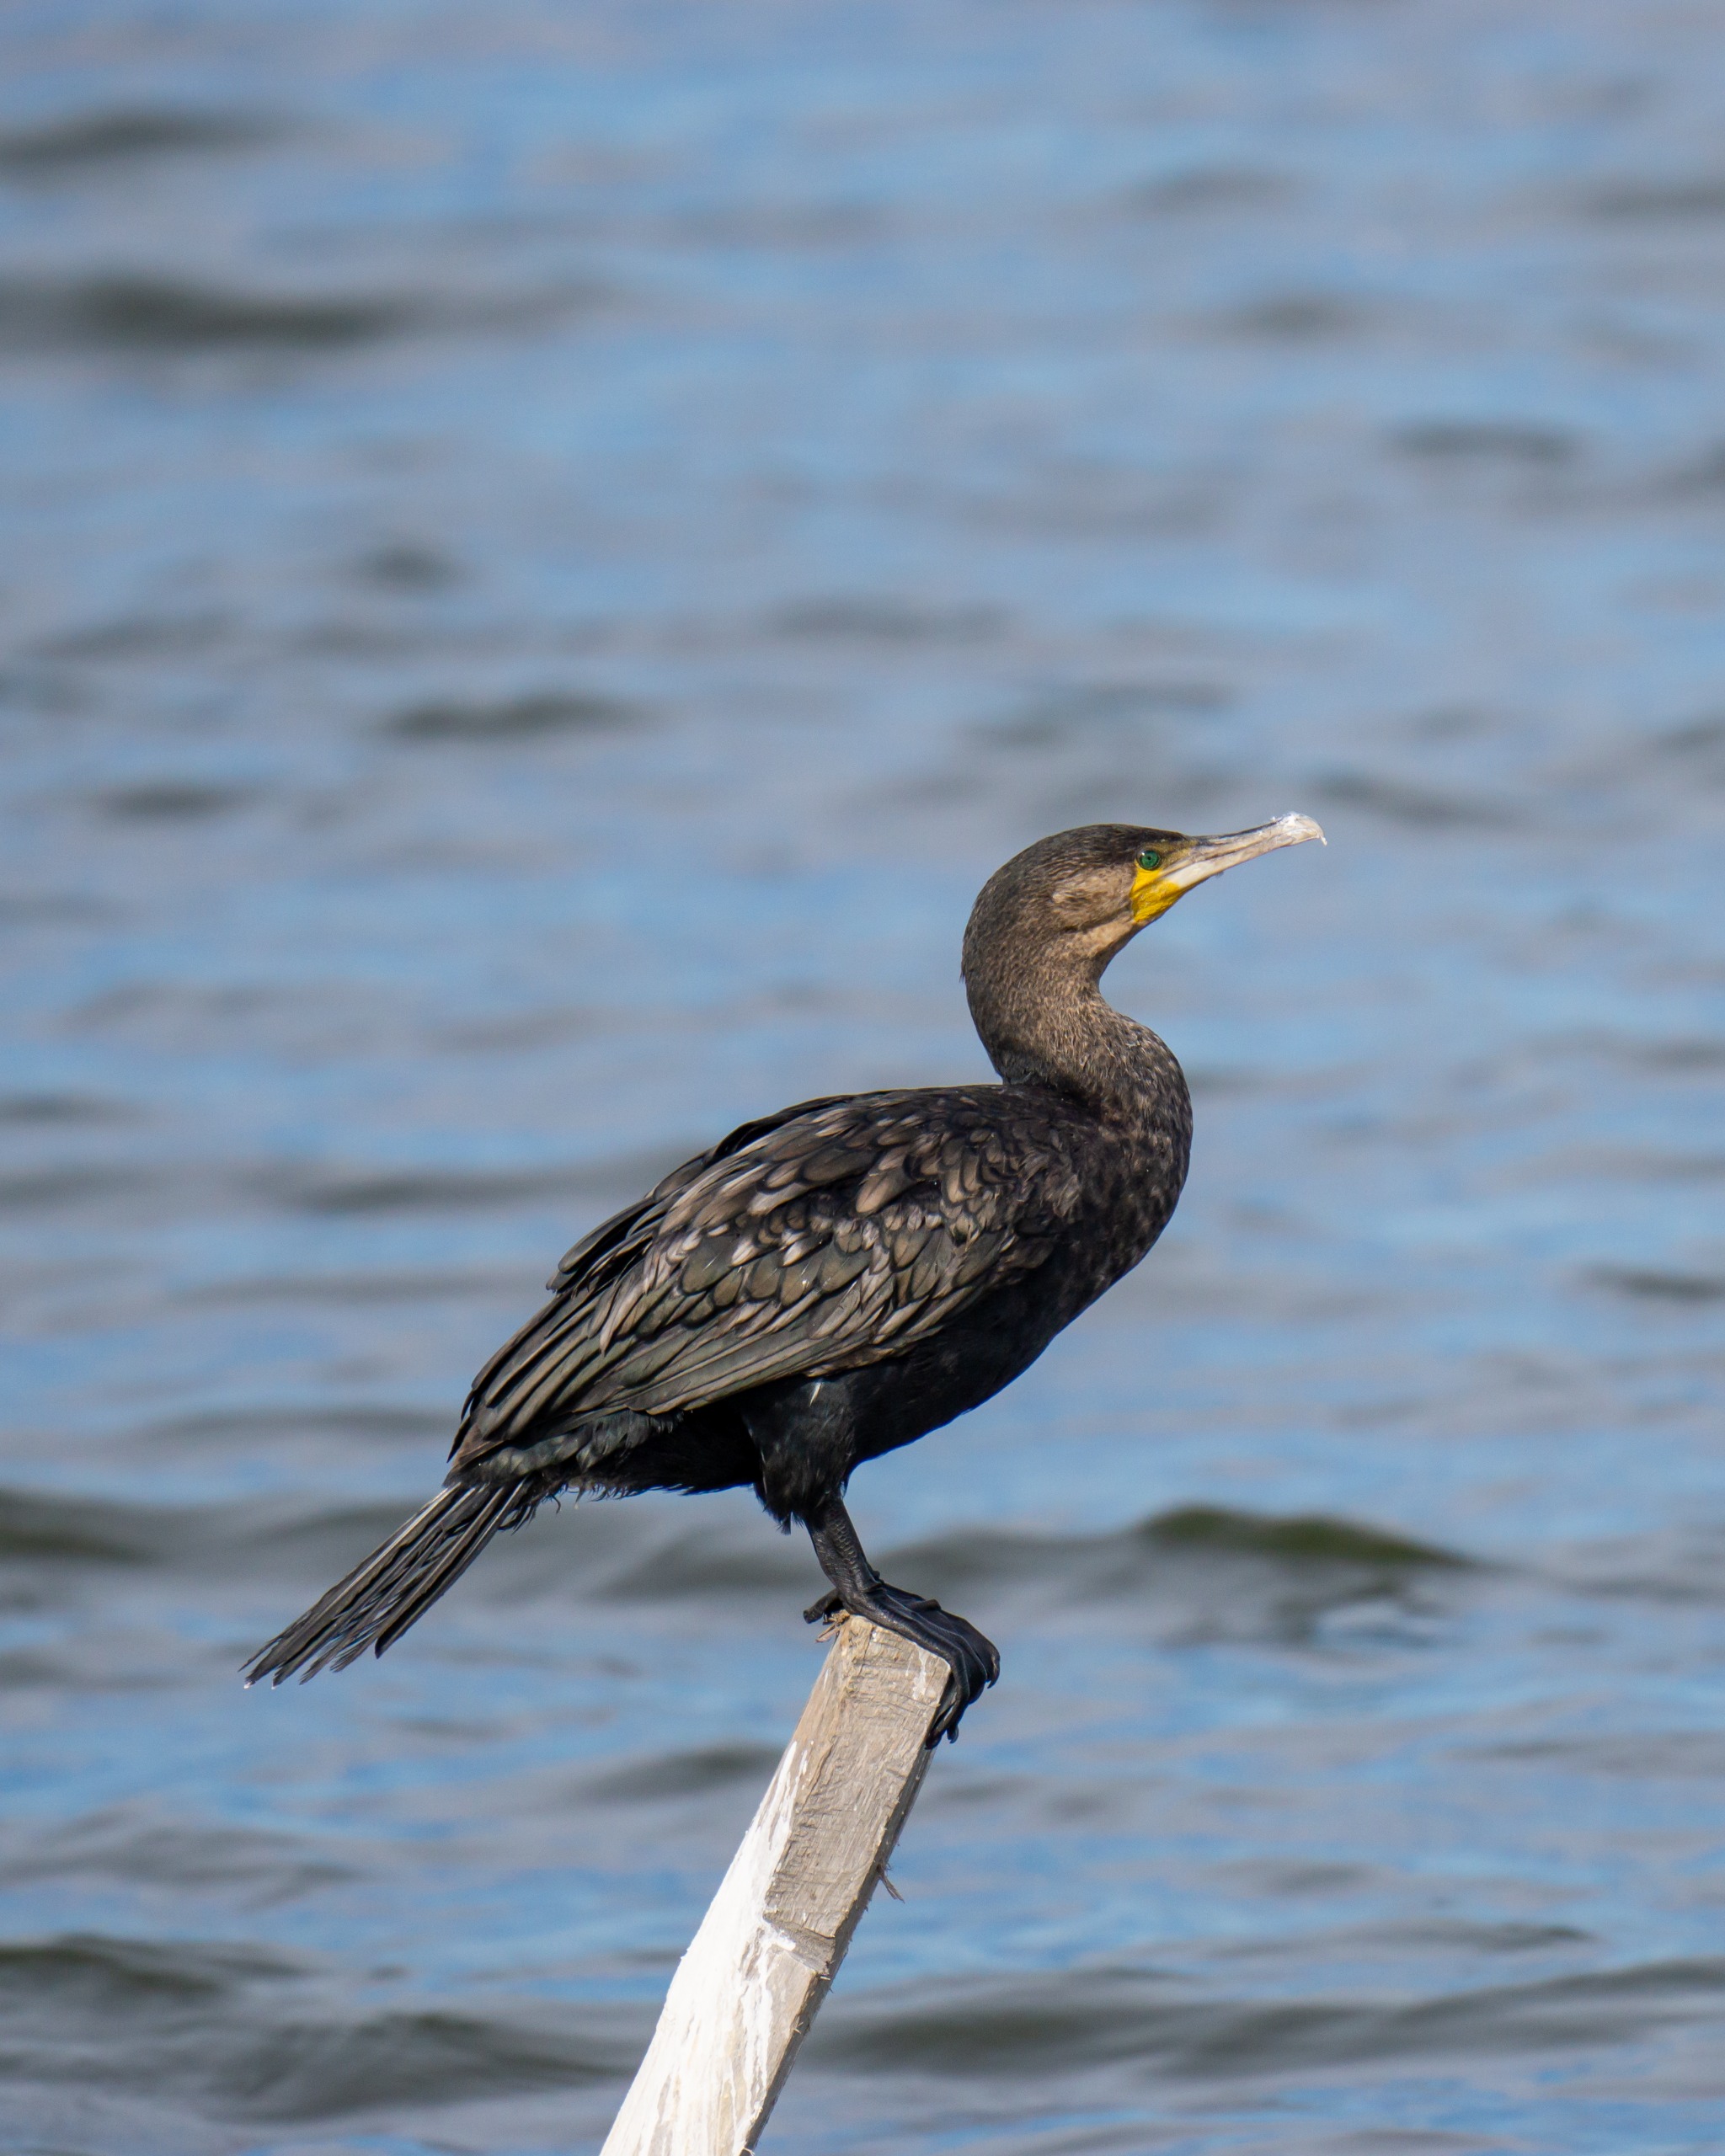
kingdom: Animalia
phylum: Chordata
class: Aves
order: Suliformes
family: Phalacrocoracidae
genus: Phalacrocorax
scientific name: Phalacrocorax carbo
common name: Skarv
